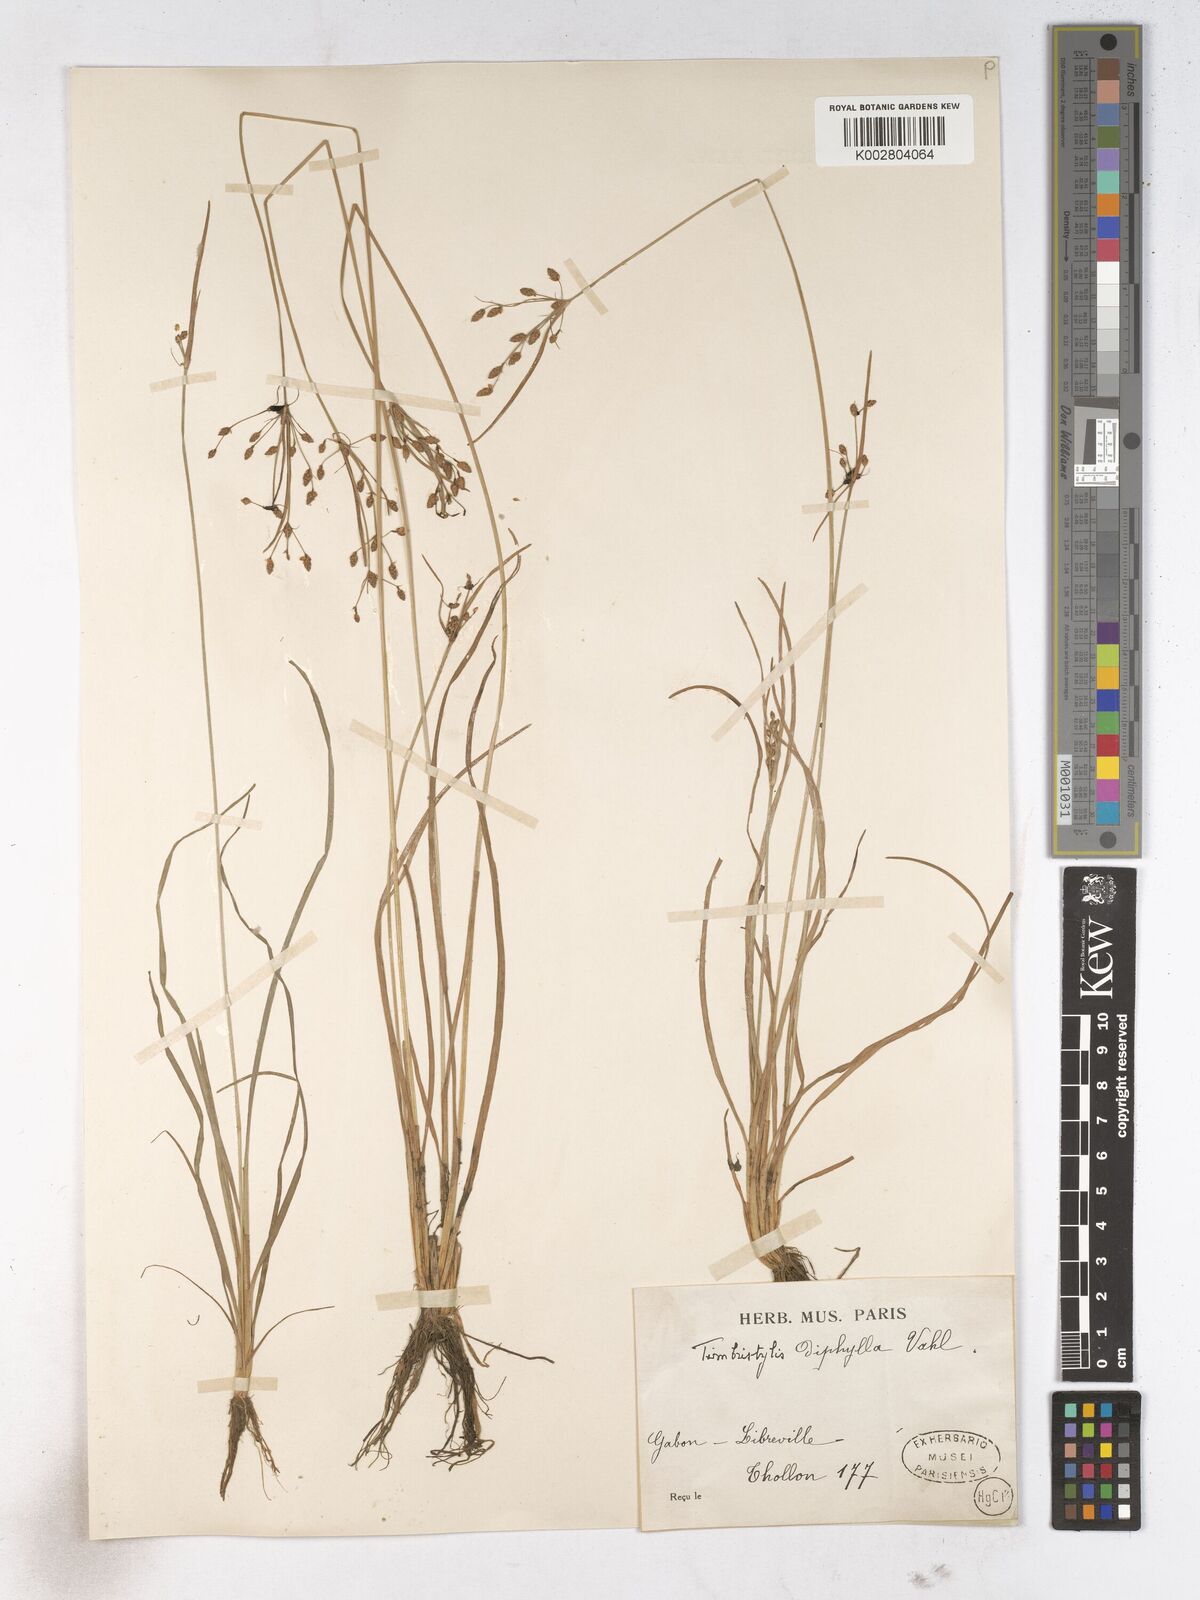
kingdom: Plantae
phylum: Tracheophyta
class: Liliopsida
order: Poales
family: Cyperaceae
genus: Fimbristylis
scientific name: Fimbristylis dichotoma
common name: Forked fimbry
